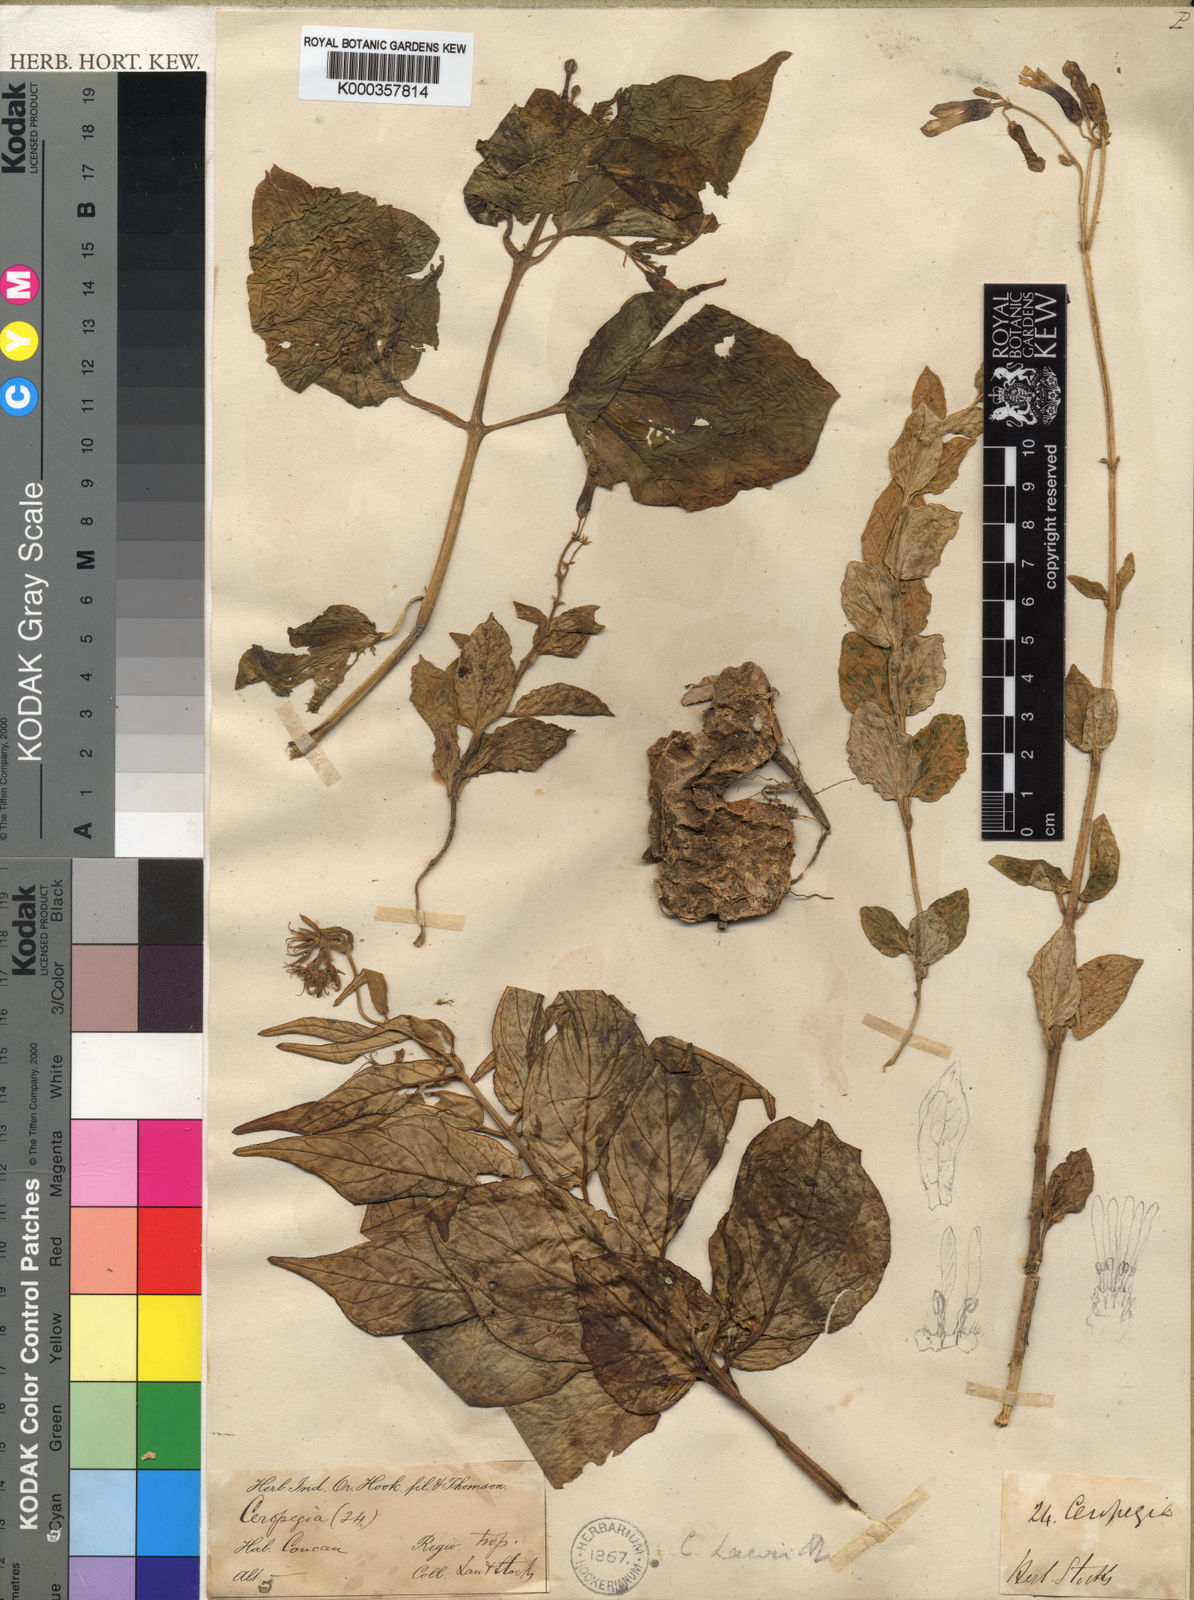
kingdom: Plantae
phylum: Tracheophyta
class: Magnoliopsida
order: Gentianales
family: Apocynaceae
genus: Ceropegia
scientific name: Ceropegia lawii
